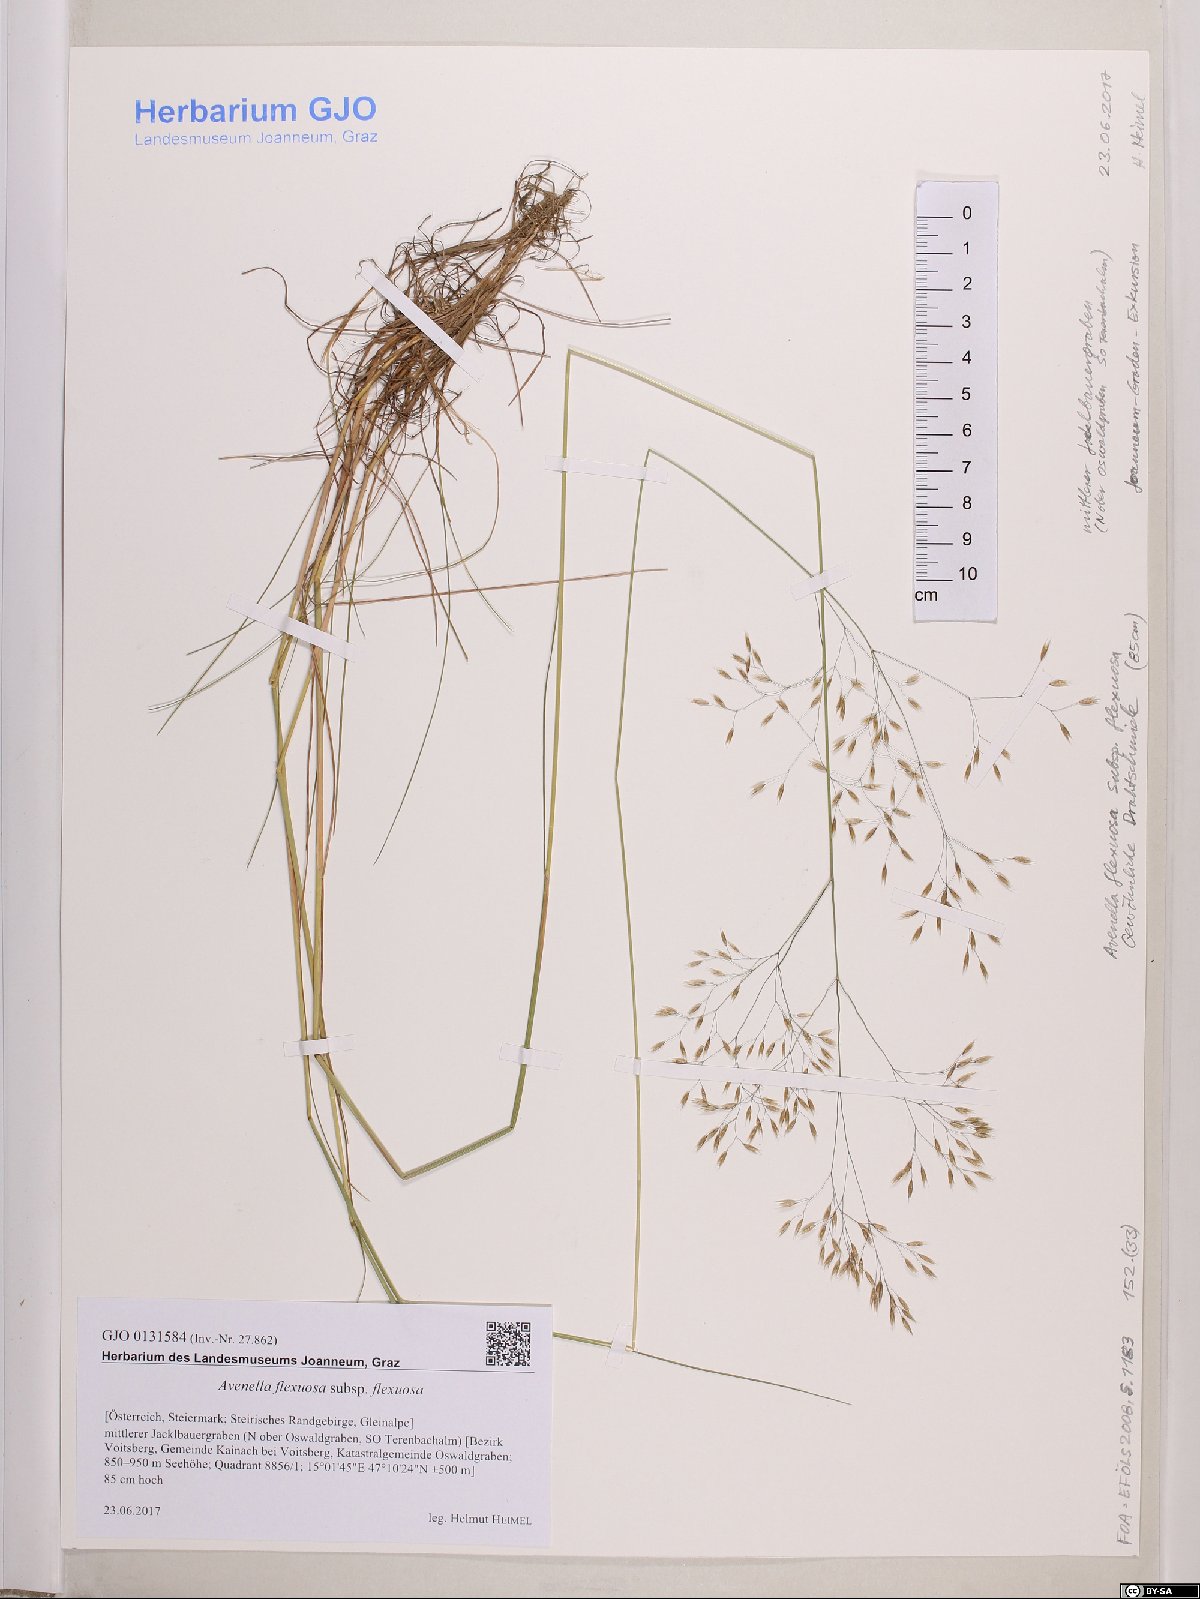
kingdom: Plantae
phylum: Tracheophyta
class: Liliopsida
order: Poales
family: Poaceae
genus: Avenella
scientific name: Avenella flexuosa
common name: Wavy hairgrass
